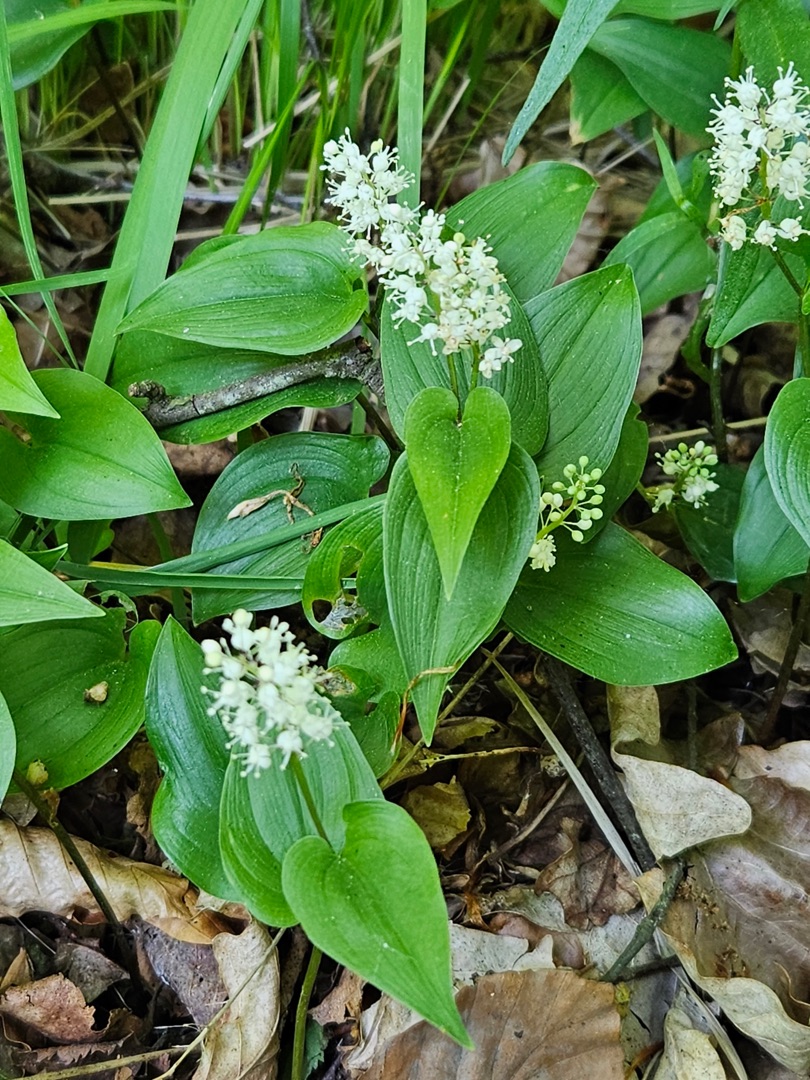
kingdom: Plantae
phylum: Tracheophyta
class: Liliopsida
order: Asparagales
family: Asparagaceae
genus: Maianthemum
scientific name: Maianthemum bifolium
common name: Majblomst
